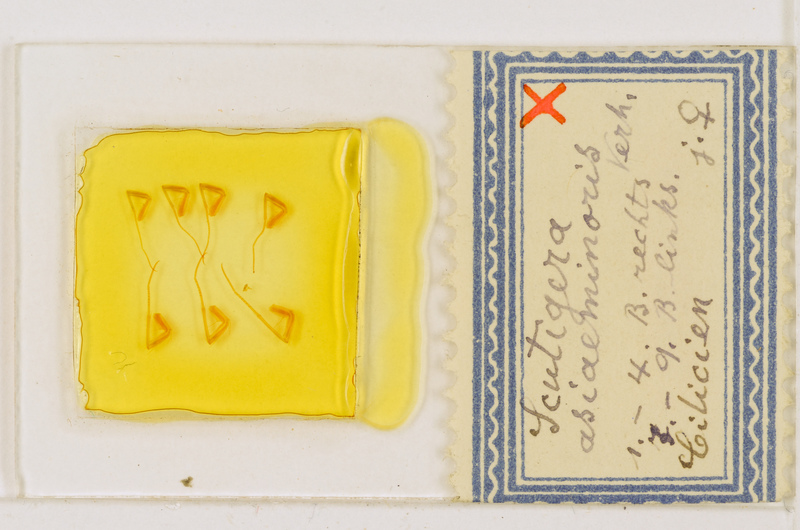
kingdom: Animalia
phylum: Arthropoda
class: Chilopoda
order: Scutigeromorpha
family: Scutigeridae
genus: Scutigera
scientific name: Scutigera coleoptrata
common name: House centipede
